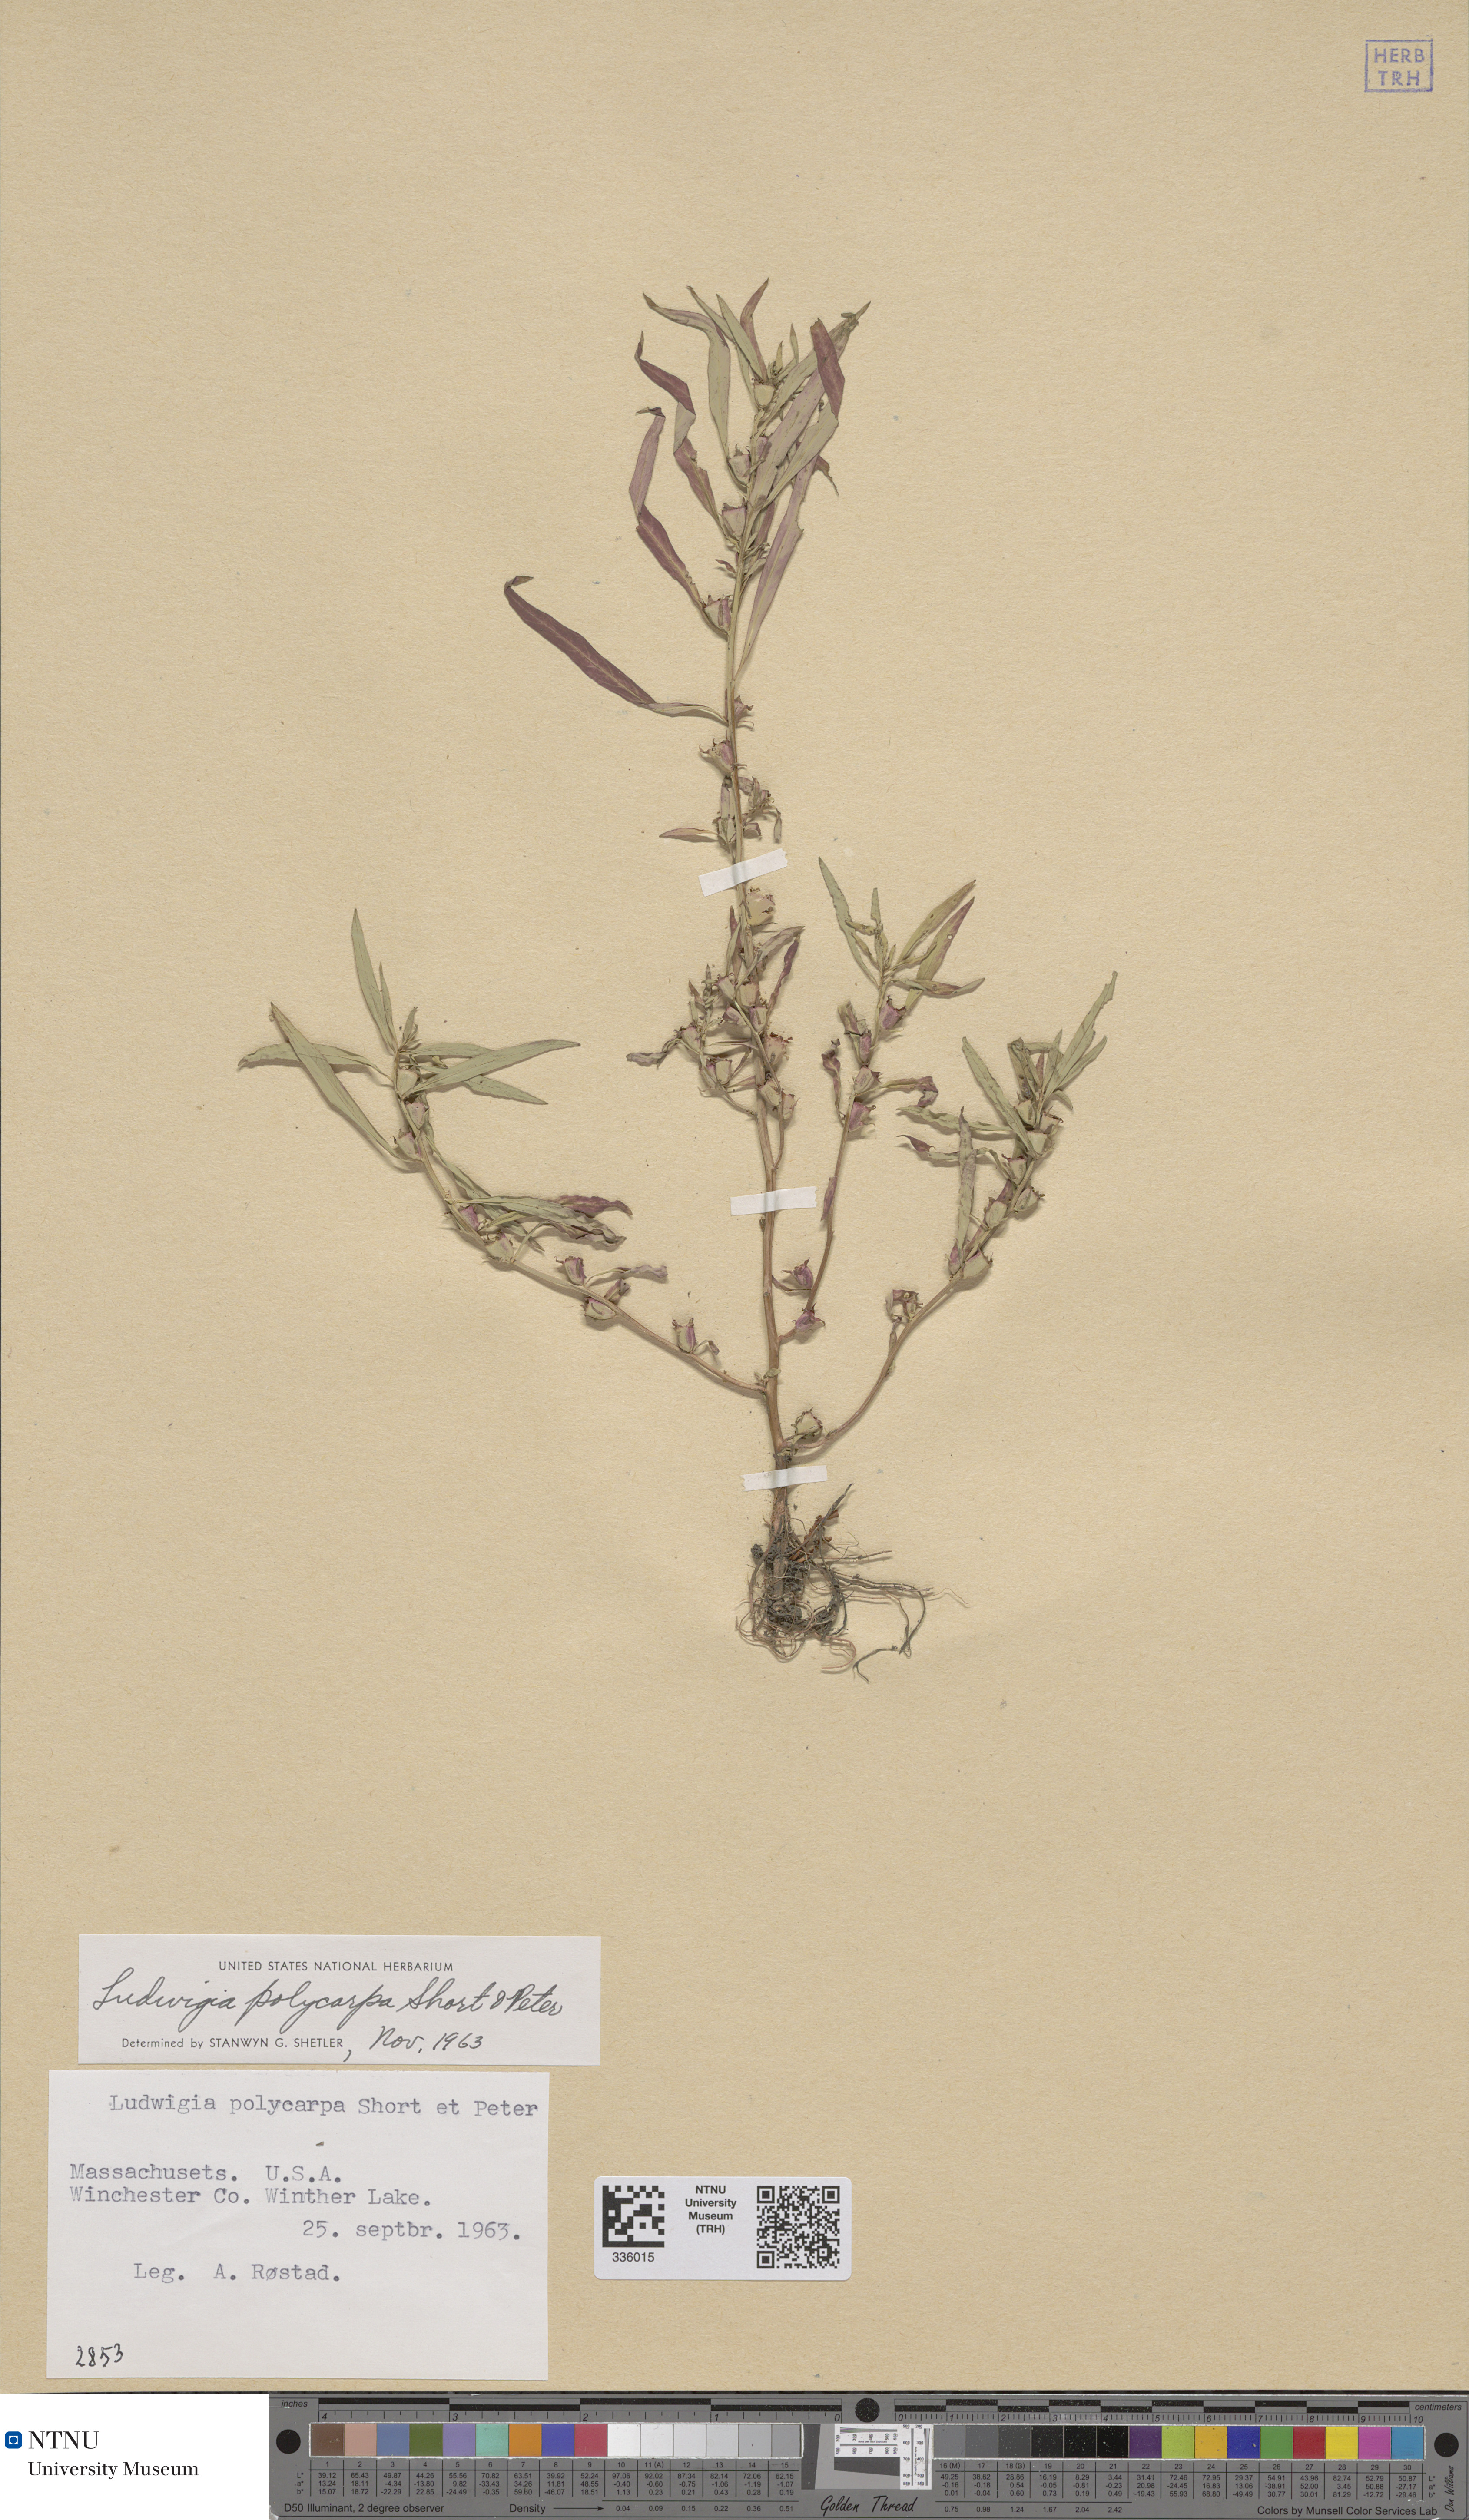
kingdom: Plantae
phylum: Tracheophyta
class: Magnoliopsida
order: Myrtales
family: Onagraceae
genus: Ludwigia
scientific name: Ludwigia polycarpa
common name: False loosestrife
